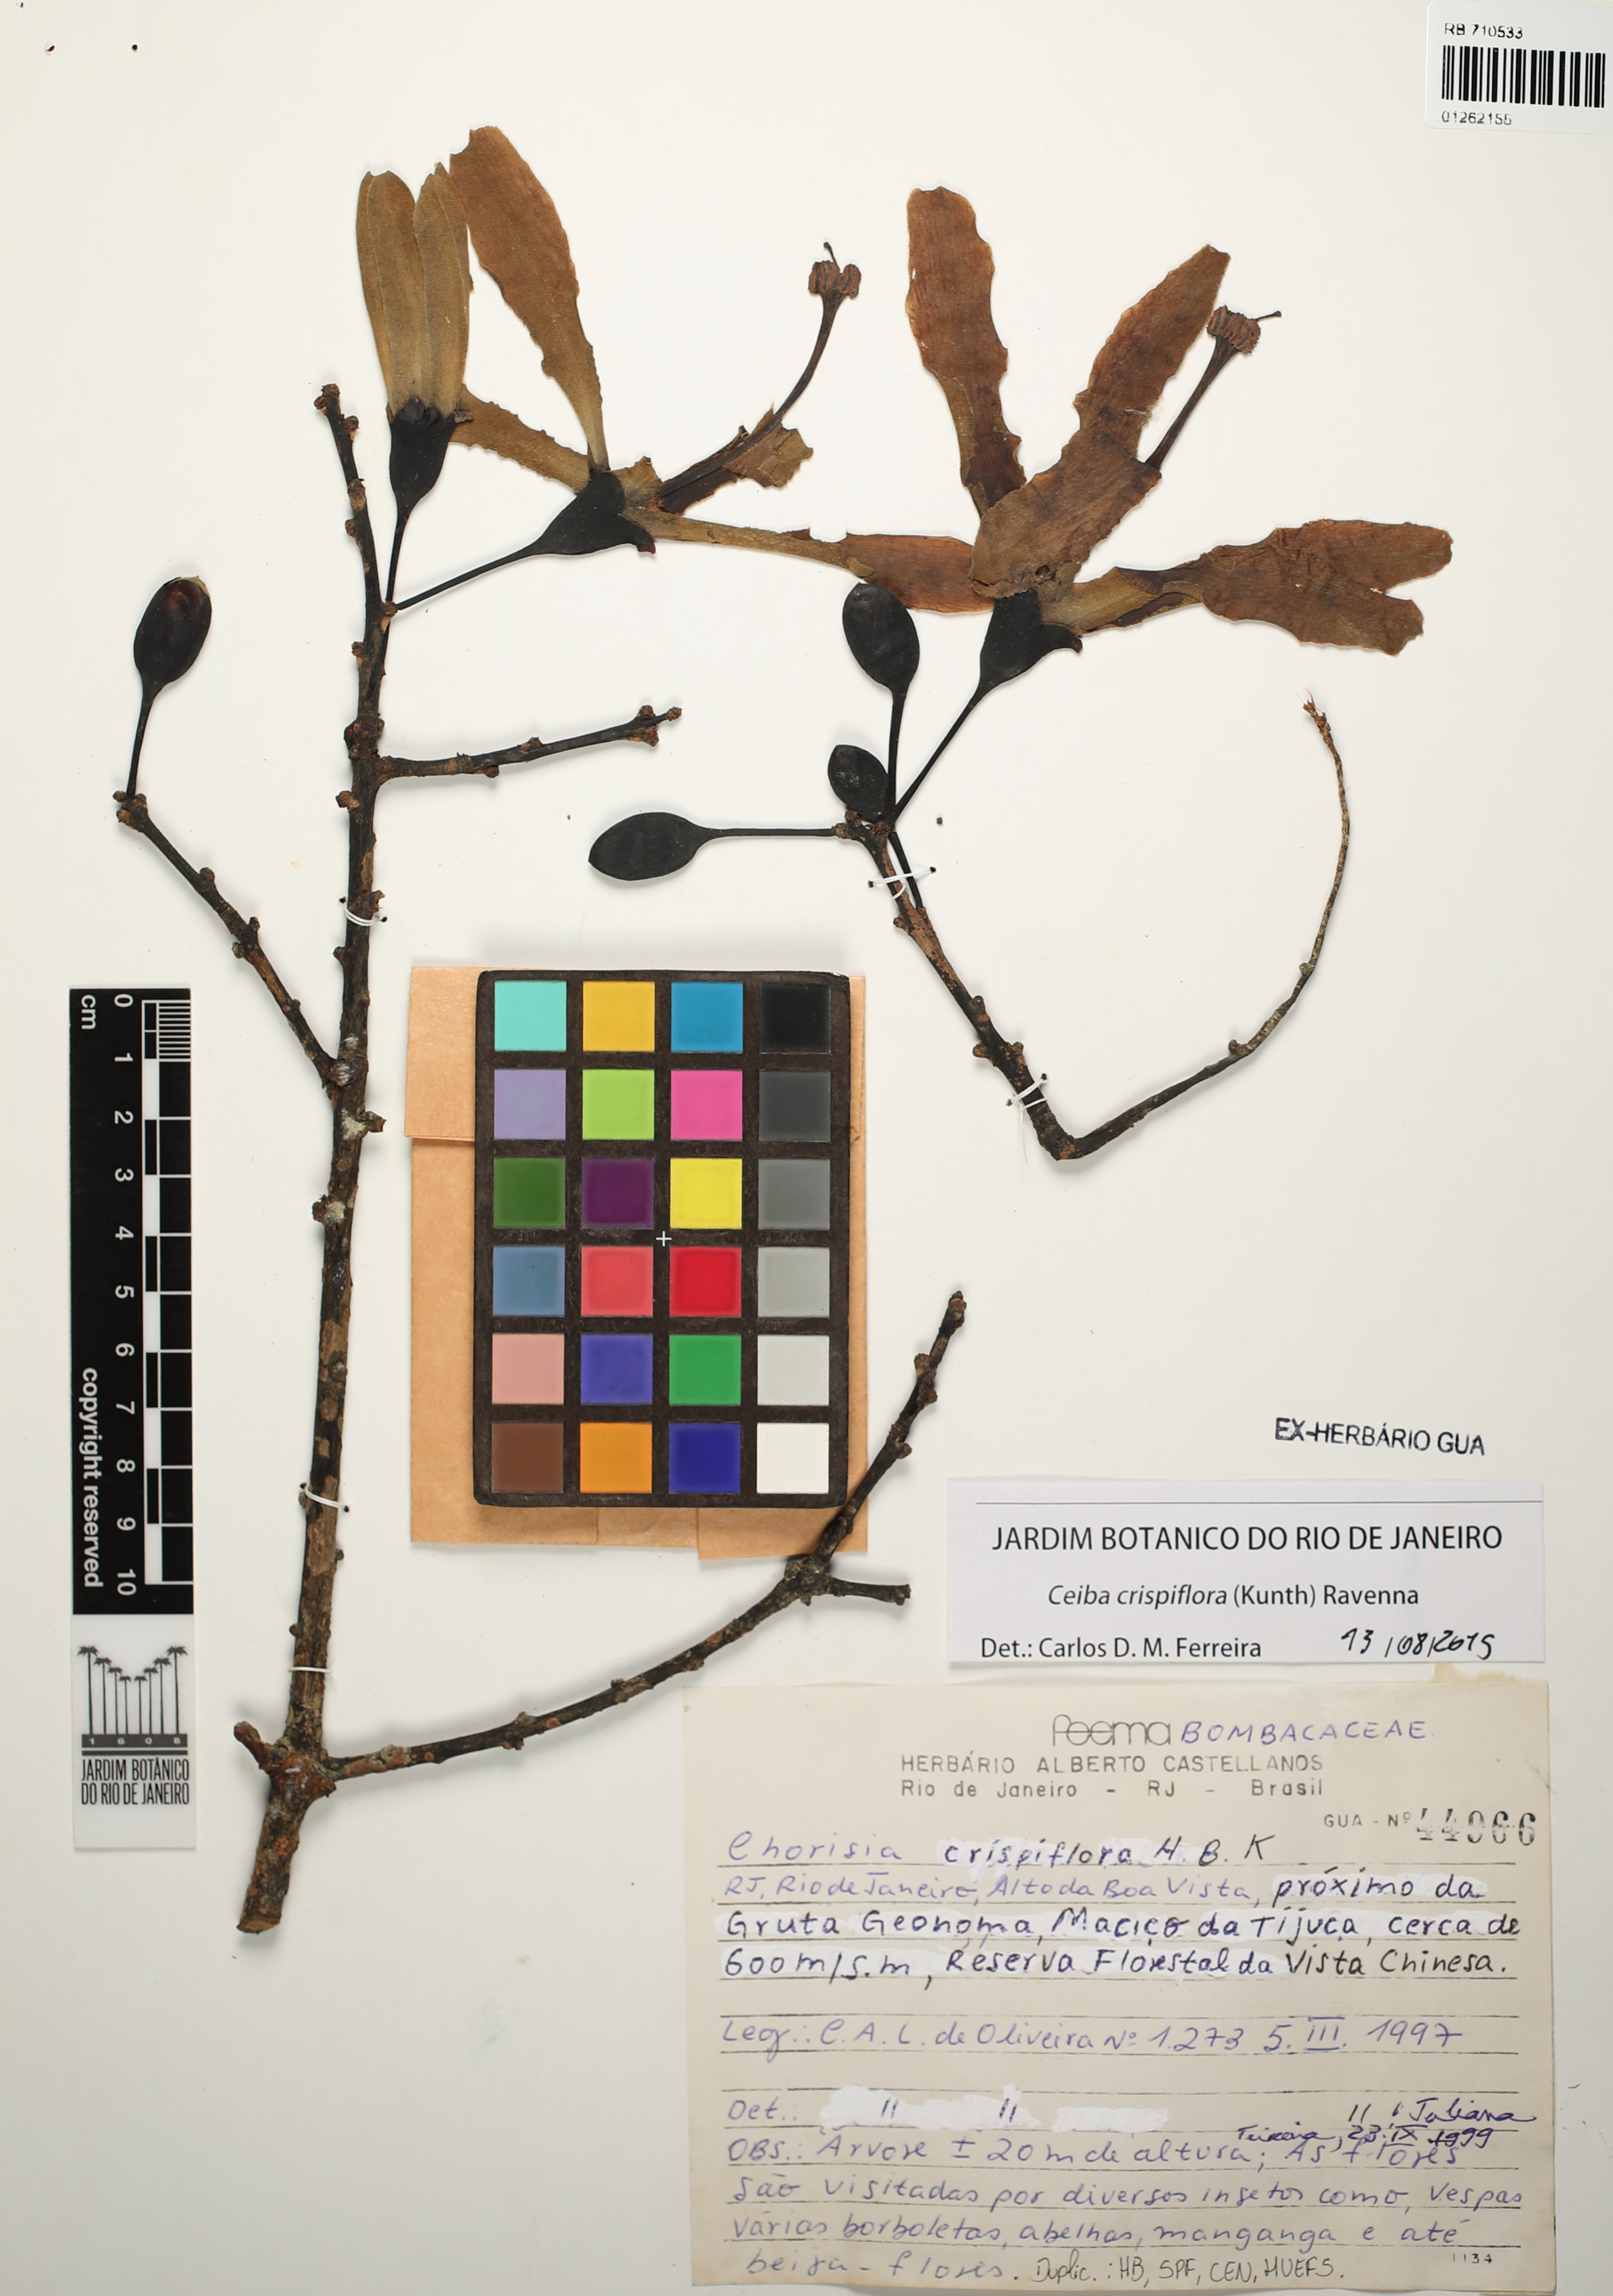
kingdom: Plantae
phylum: Tracheophyta
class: Magnoliopsida
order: Malvales
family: Malvaceae
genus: Ceiba
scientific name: Ceiba crispiflora
